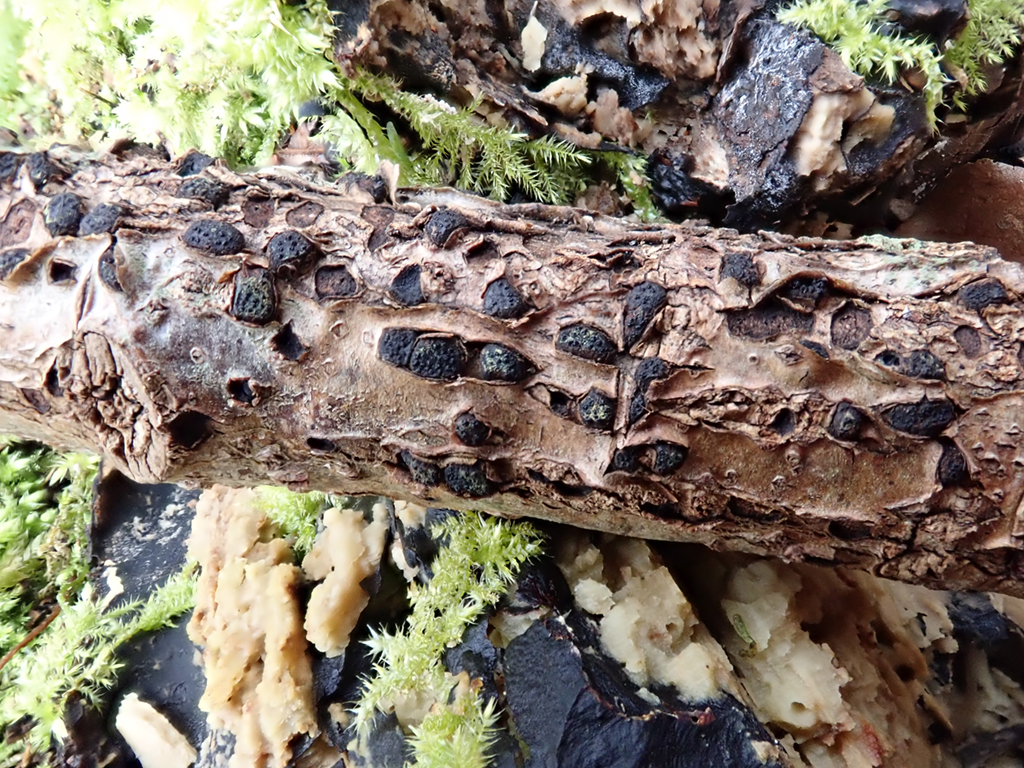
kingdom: Fungi
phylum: Ascomycota
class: Sordariomycetes
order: Xylariales
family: Diatrypaceae
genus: Diatrypella
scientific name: Diatrypella quercina
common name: ege-kulskorpe
